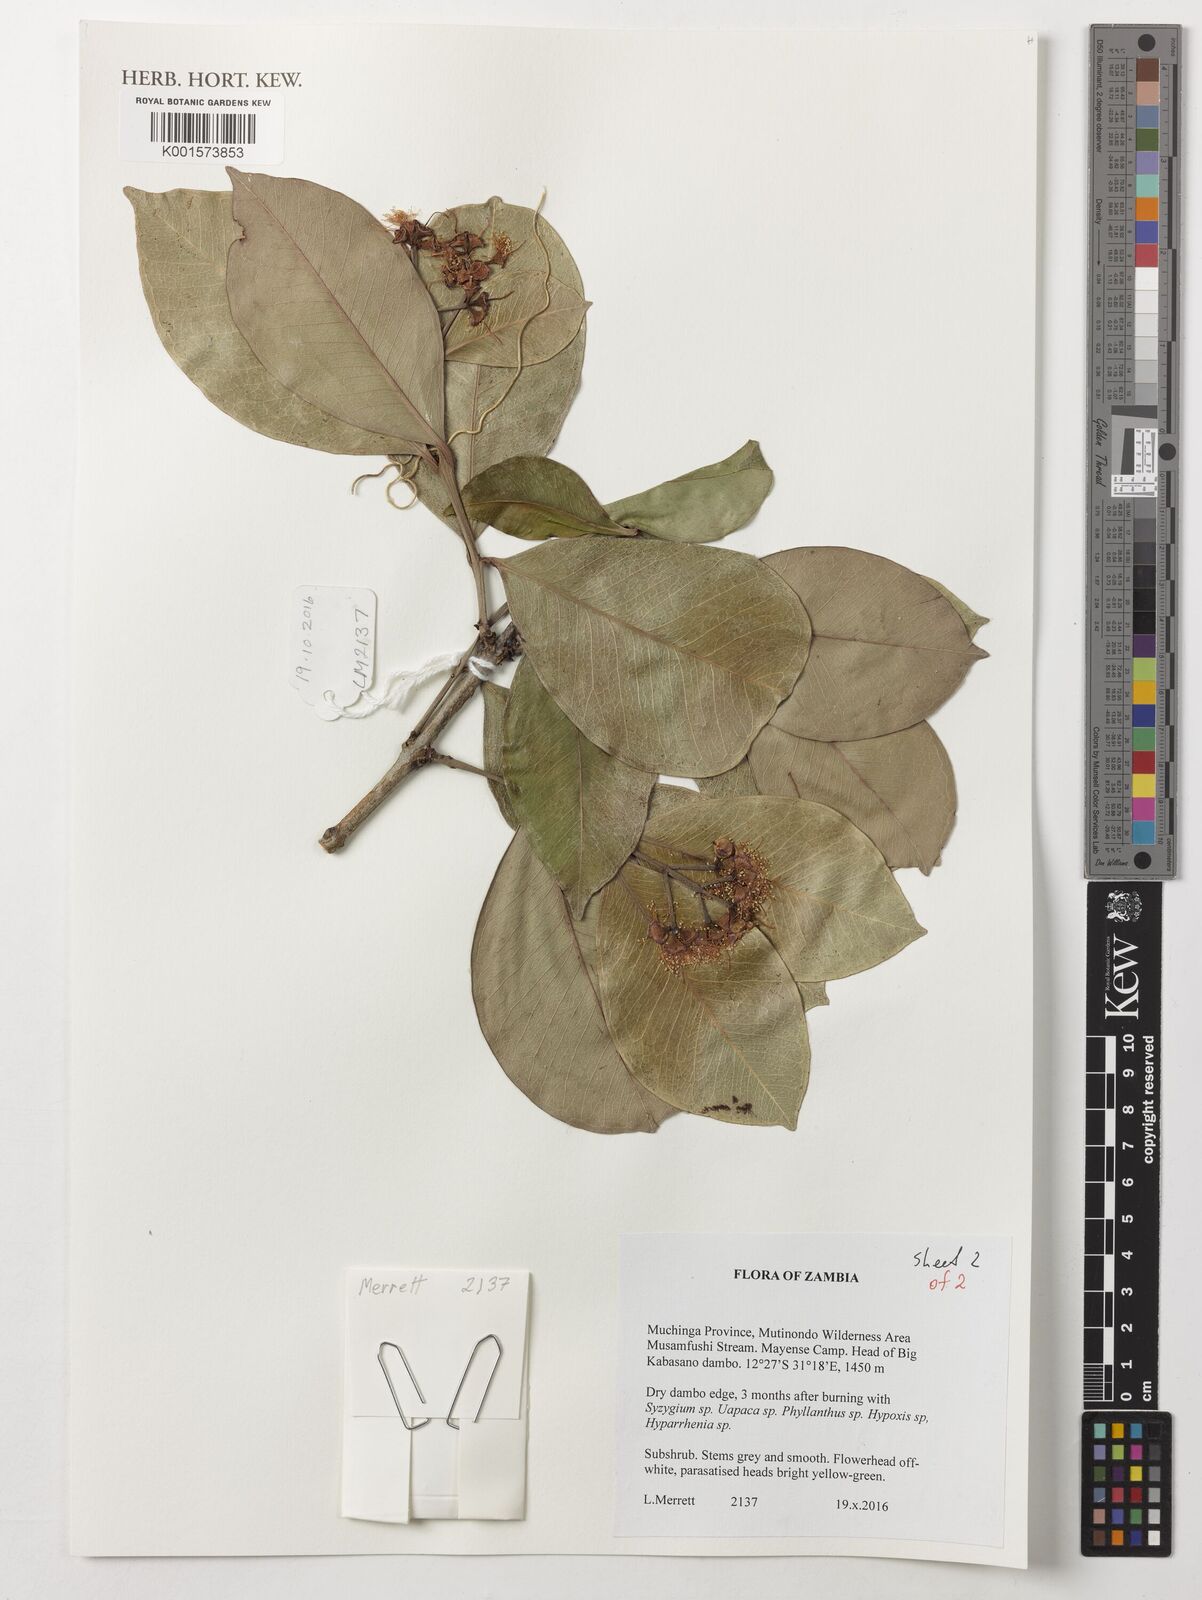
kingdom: Plantae
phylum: Tracheophyta
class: Magnoliopsida
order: Myrtales
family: Myrtaceae
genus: Syzygium
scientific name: Syzygium guineense
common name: Water-pear
